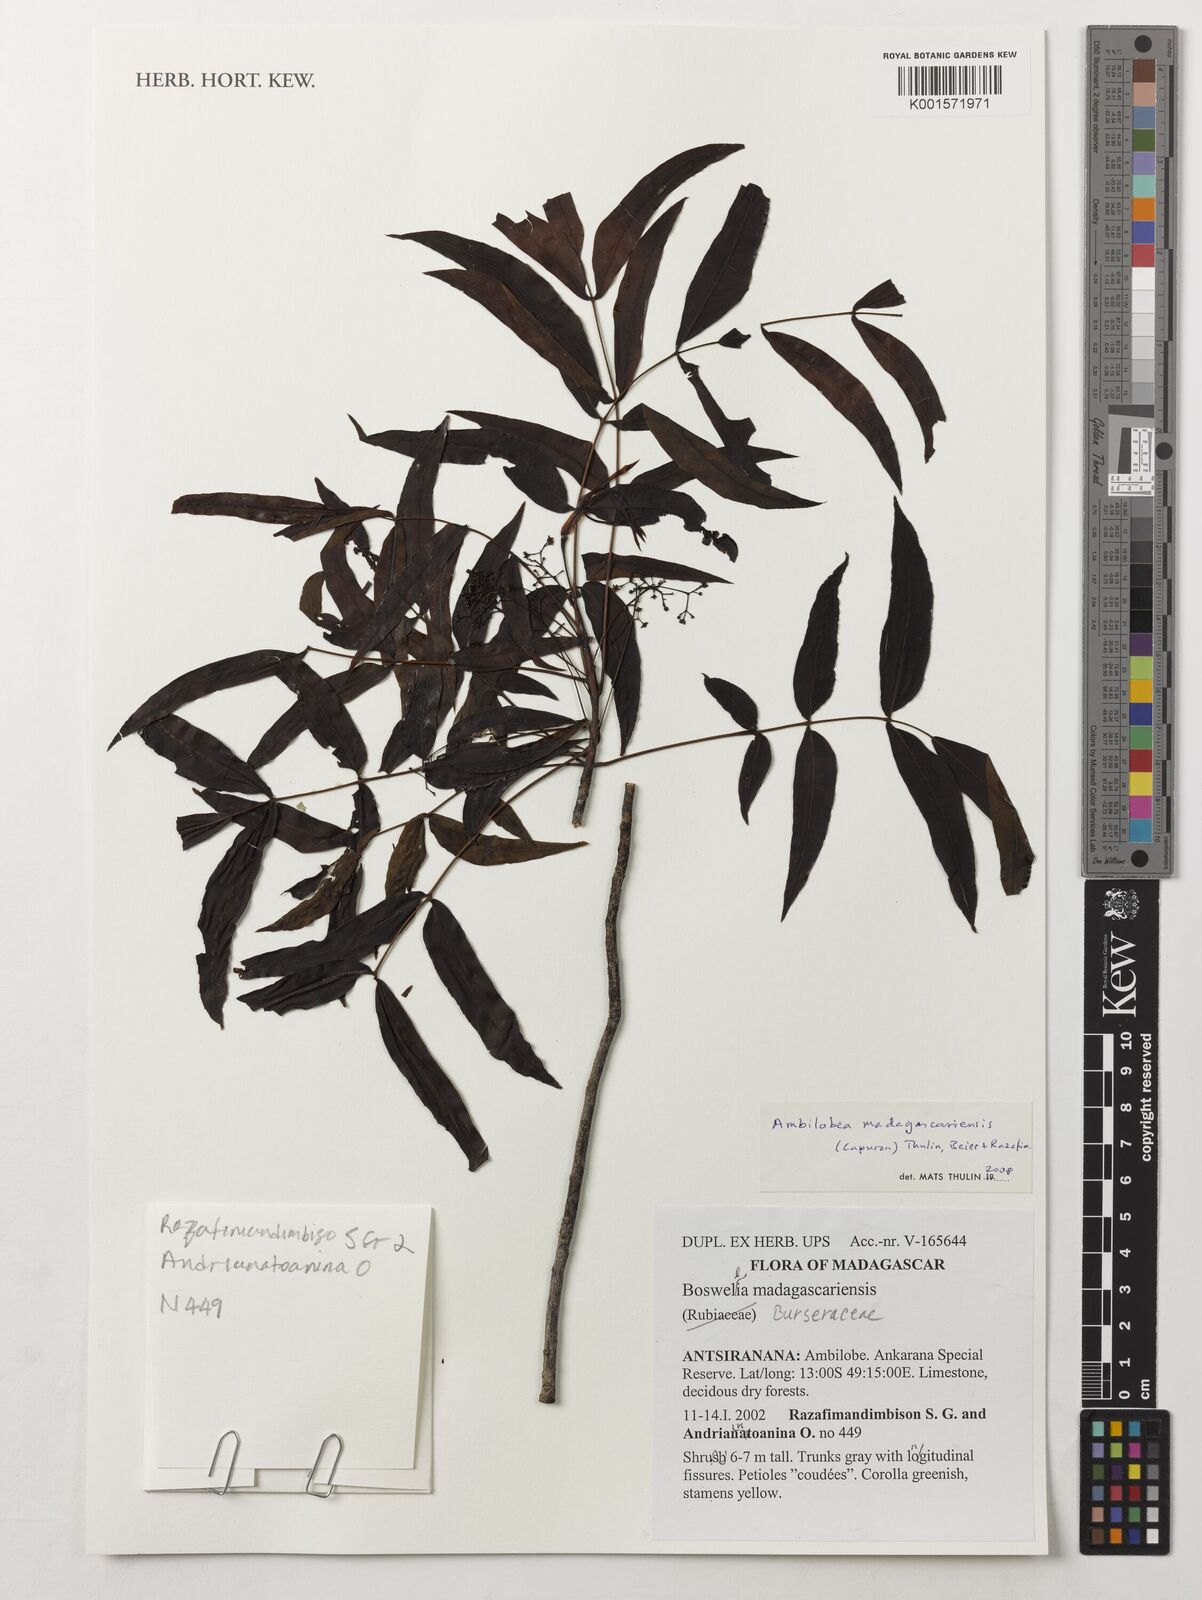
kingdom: Plantae
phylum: Tracheophyta
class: Magnoliopsida
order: Sapindales
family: Burseraceae
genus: Ambilobea
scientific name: Ambilobea madagascariensis
